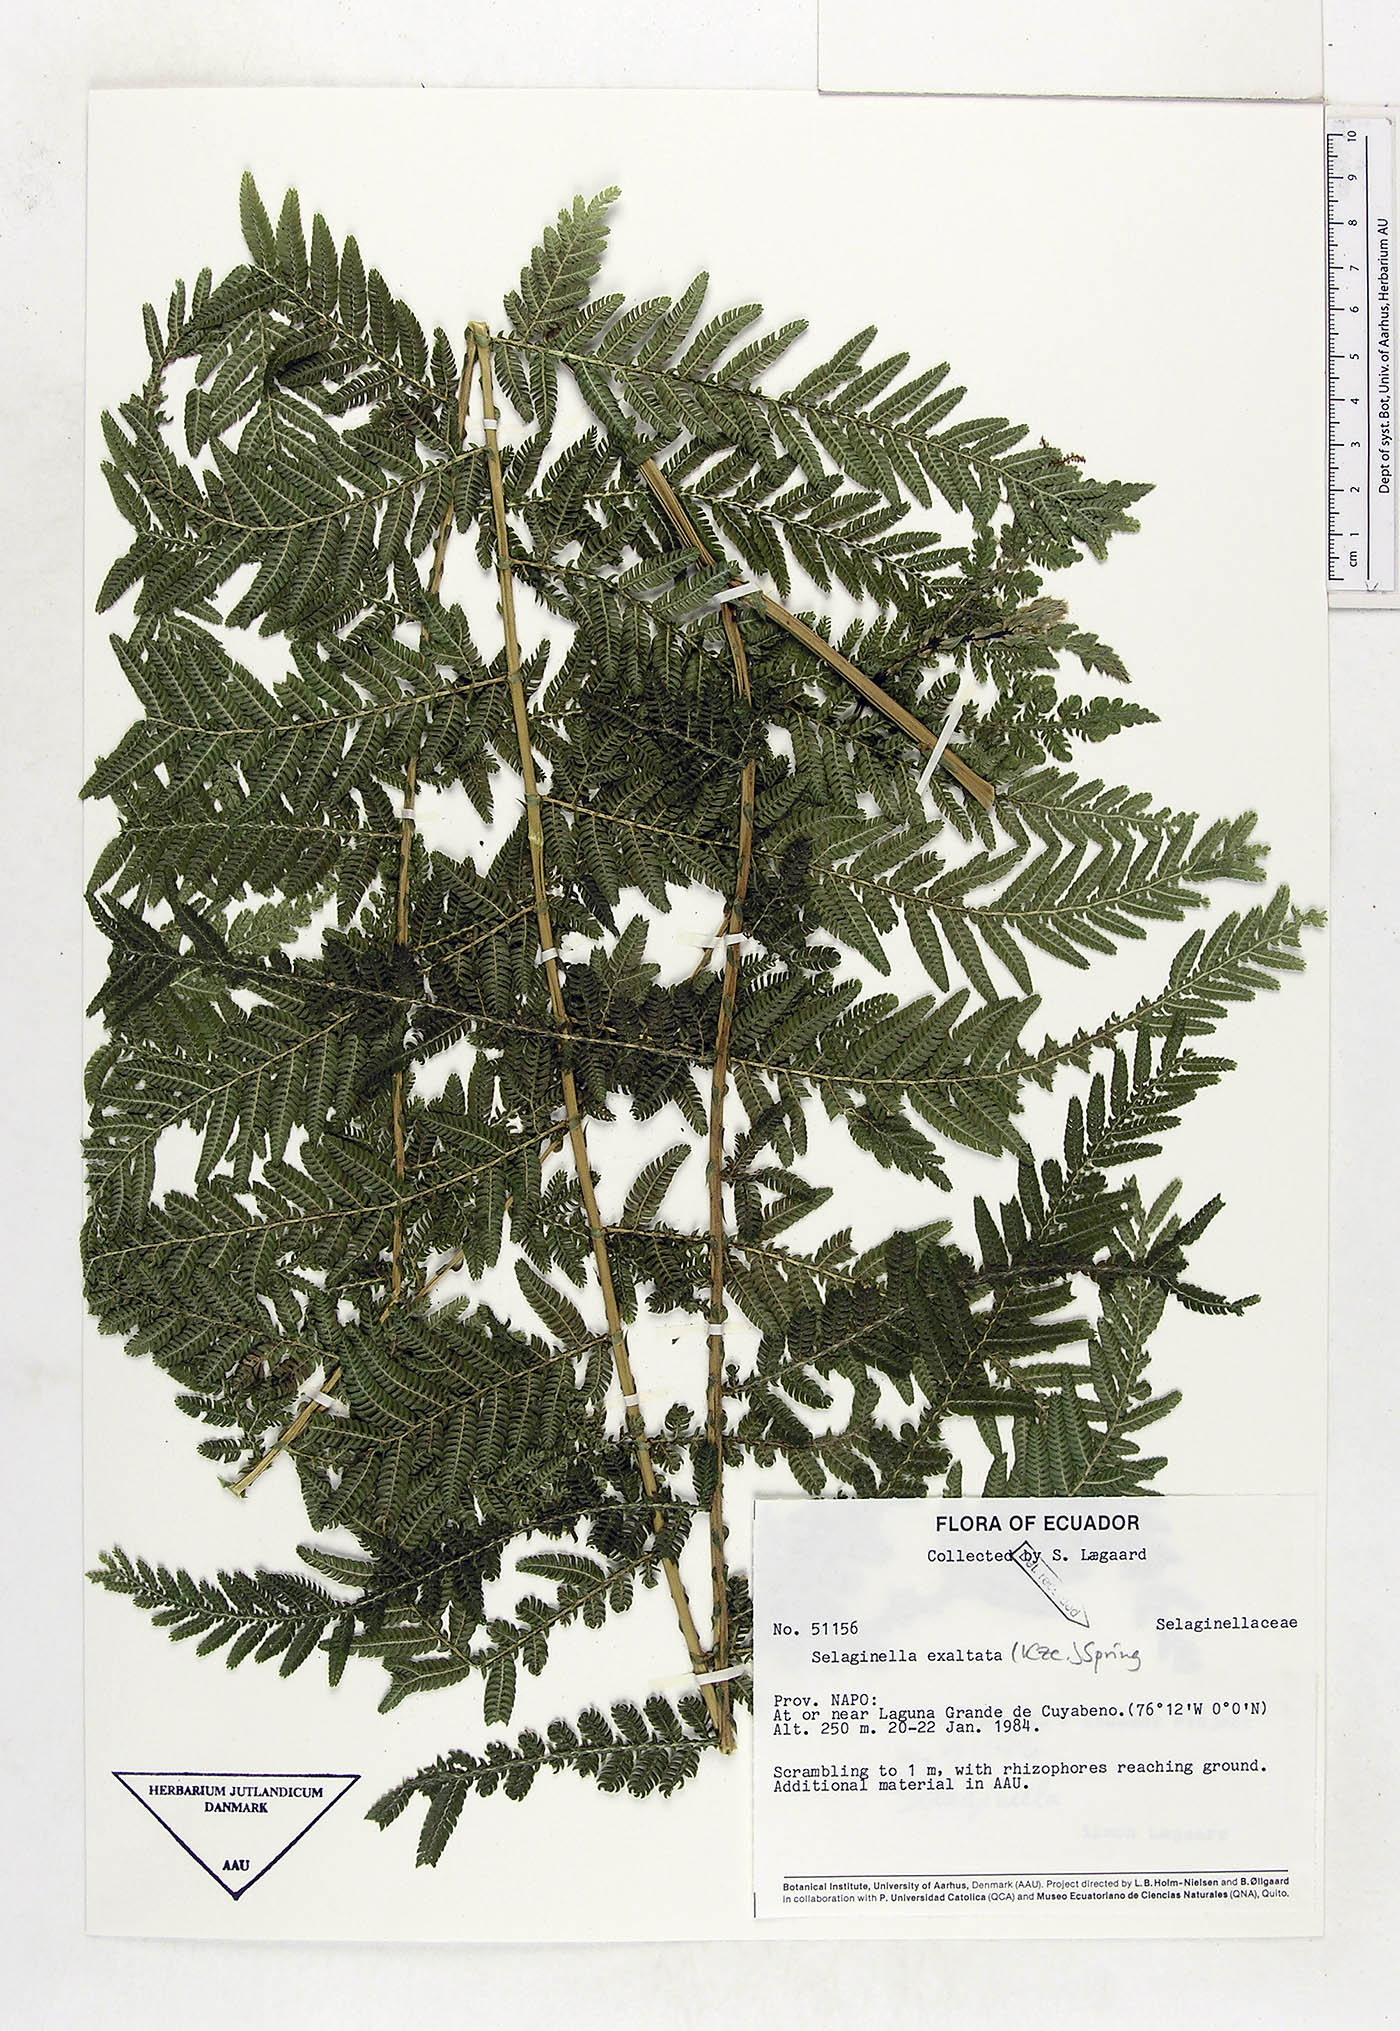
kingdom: Plantae
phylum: Tracheophyta
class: Lycopodiopsida
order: Selaginellales
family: Selaginellaceae
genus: Selaginella
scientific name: Selaginella exaltata
